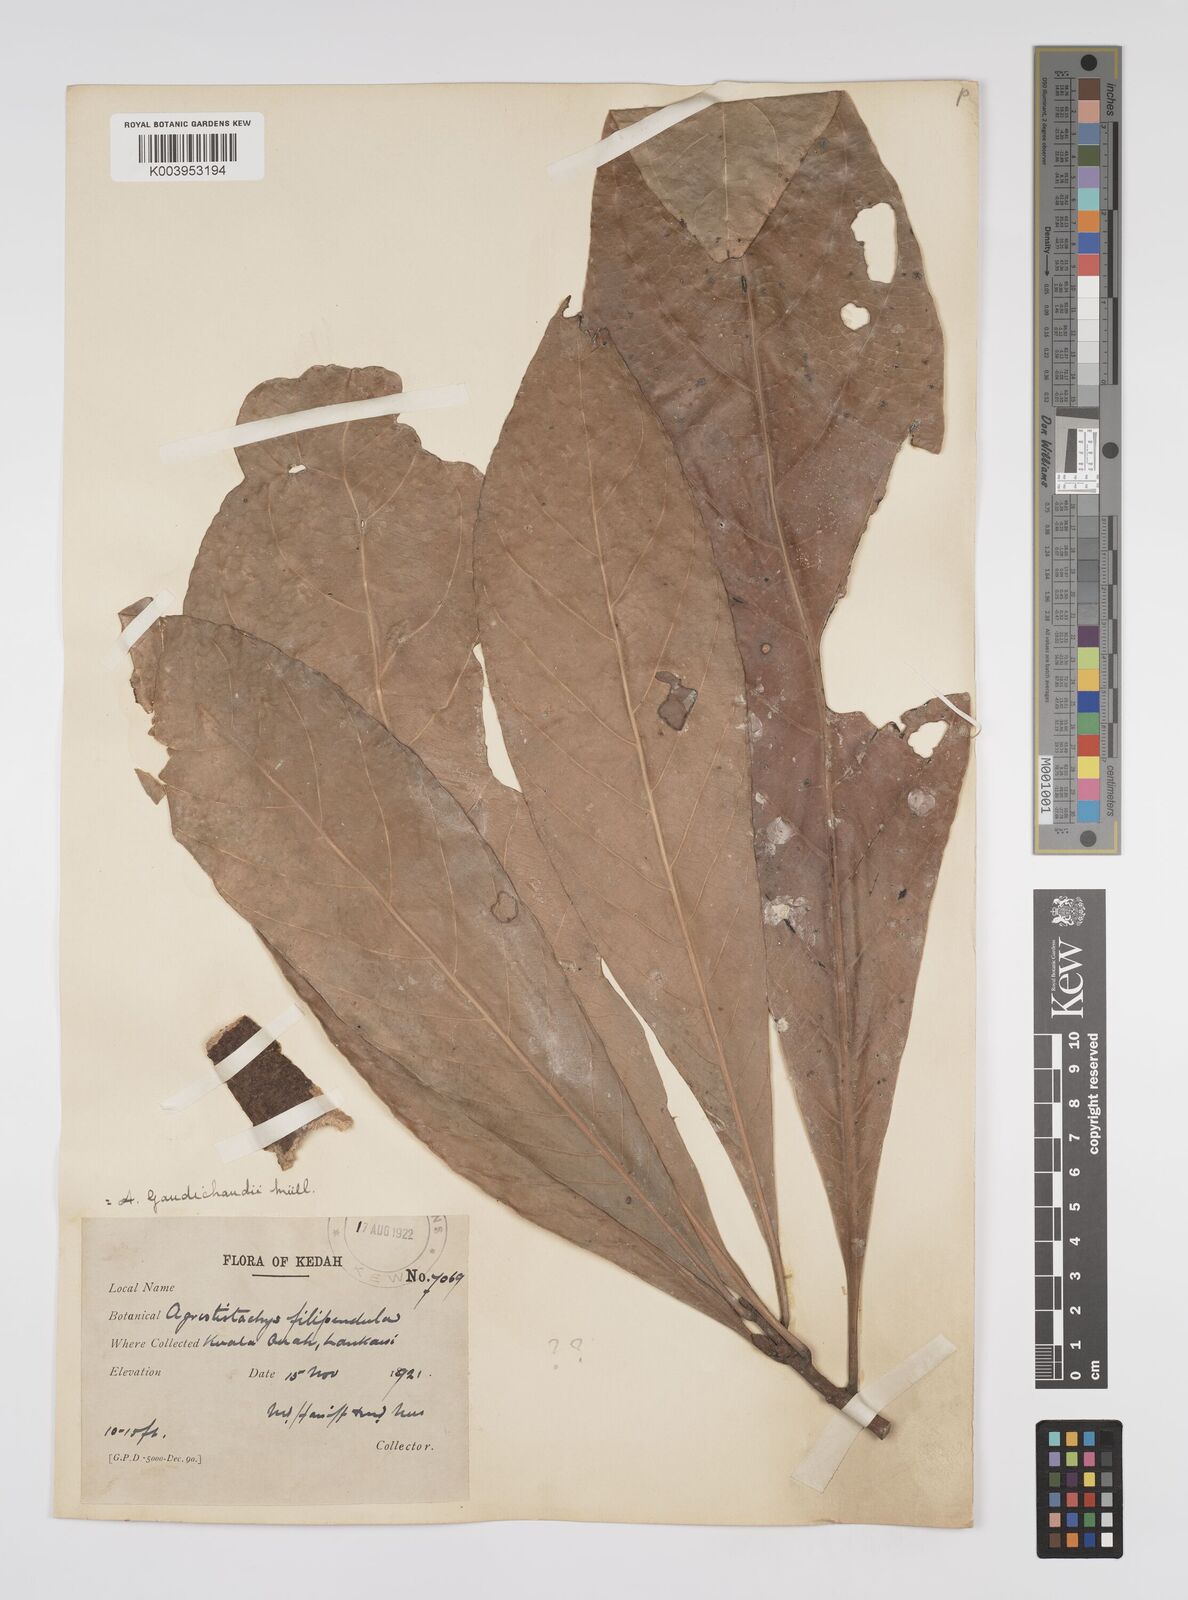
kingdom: Plantae
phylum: Tracheophyta
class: Magnoliopsida
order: Malpighiales
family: Euphorbiaceae
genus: Agrostistachys
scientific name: Agrostistachys gaudichaudii
